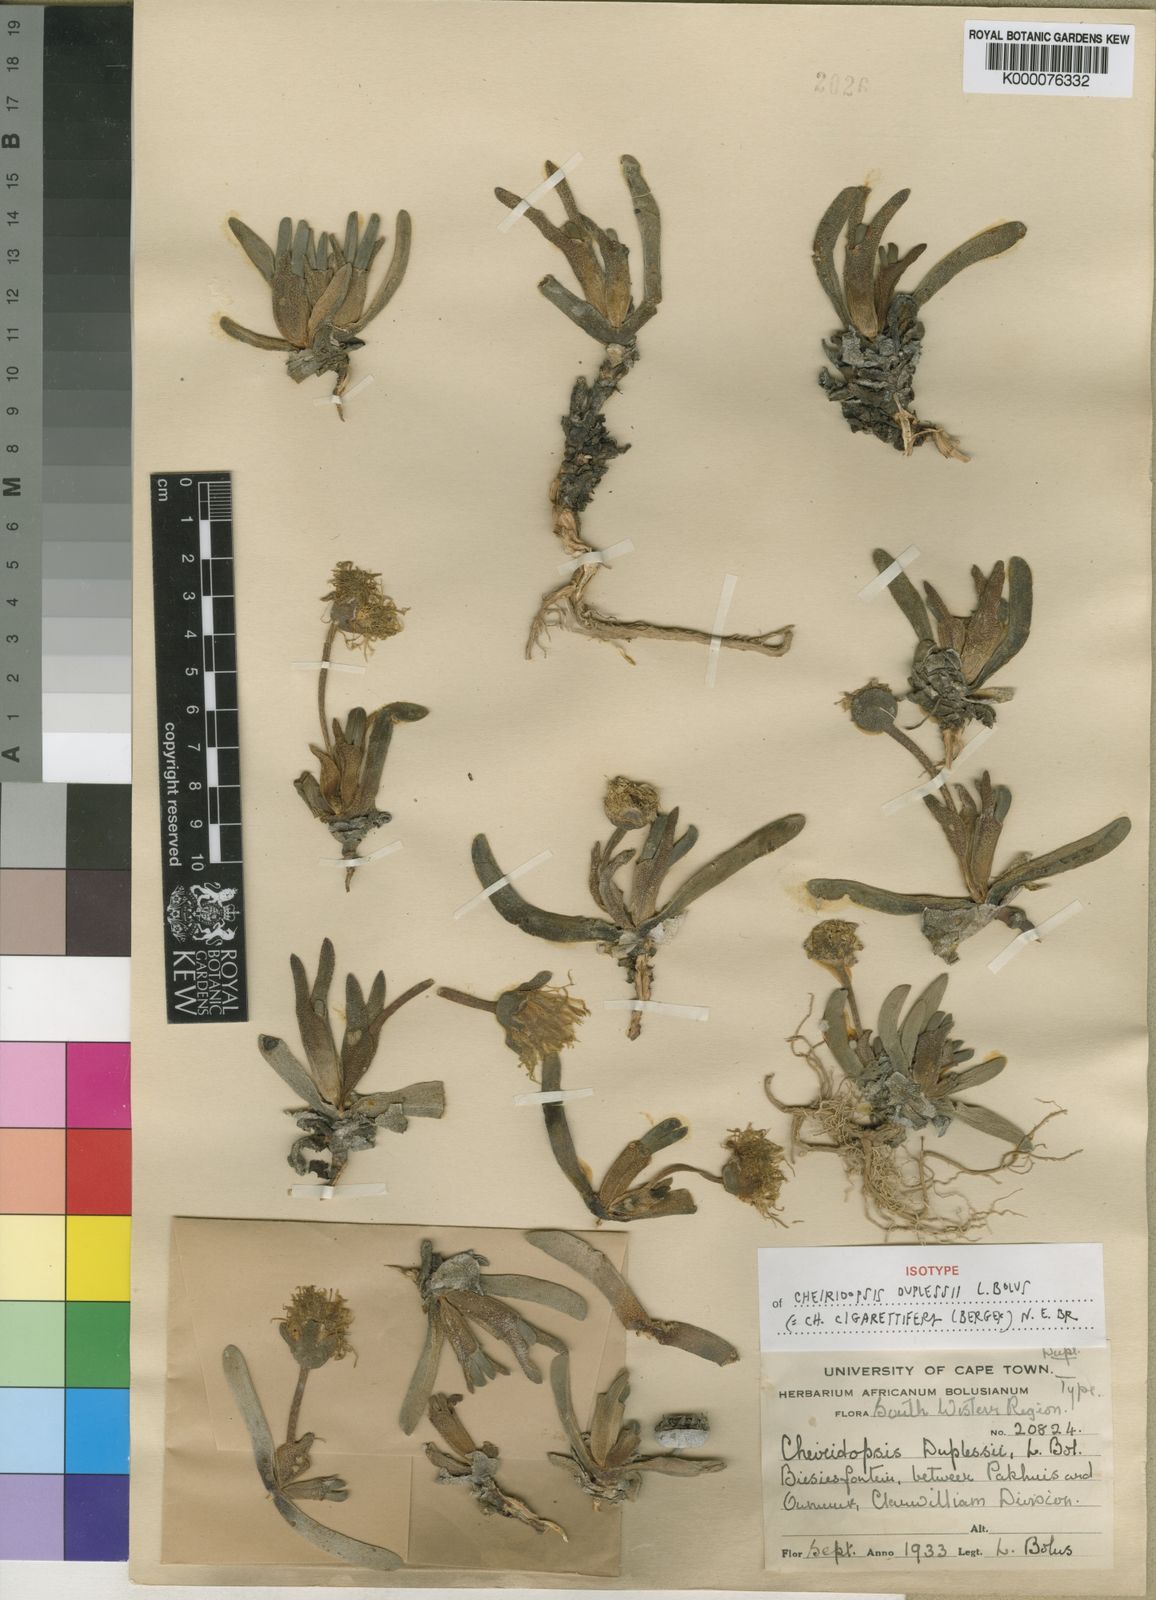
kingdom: Plantae
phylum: Tracheophyta
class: Magnoliopsida
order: Caryophyllales
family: Aizoaceae
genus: Cheiridopsis
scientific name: Cheiridopsis namaquensis
